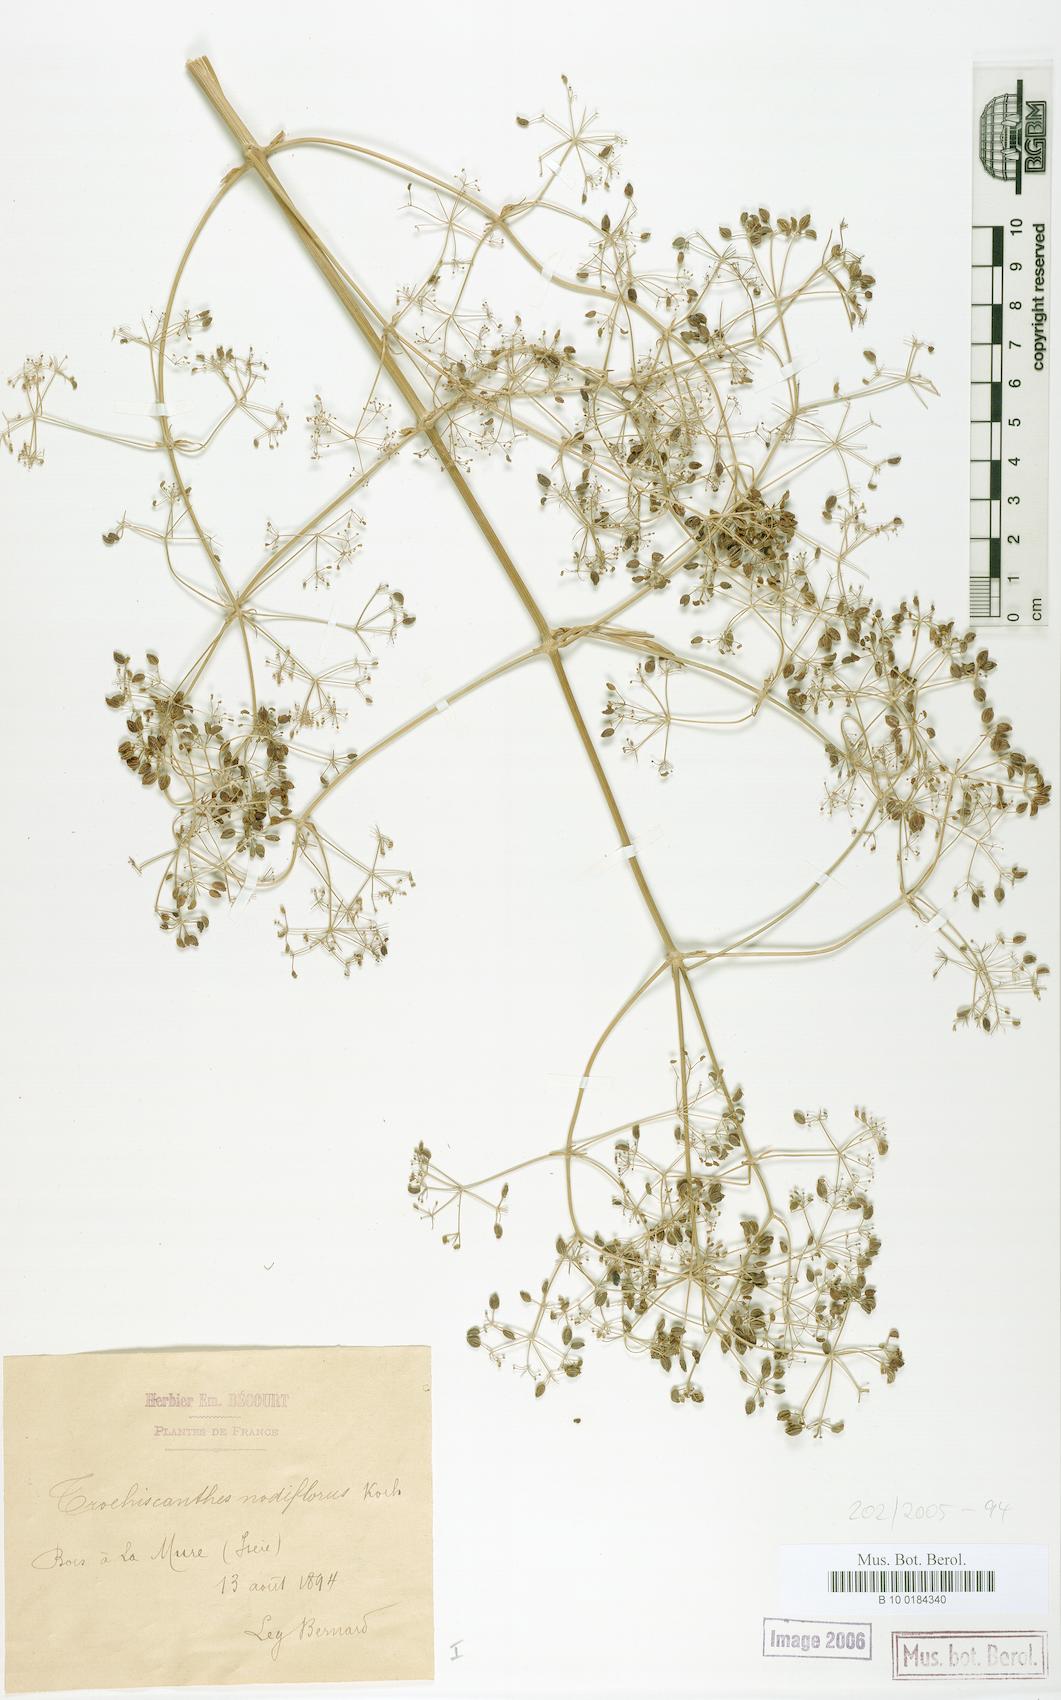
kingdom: Plantae
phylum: Tracheophyta
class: Magnoliopsida
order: Apiales
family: Apiaceae
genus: Trochiscanthes
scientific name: Trochiscanthes nodiflora
